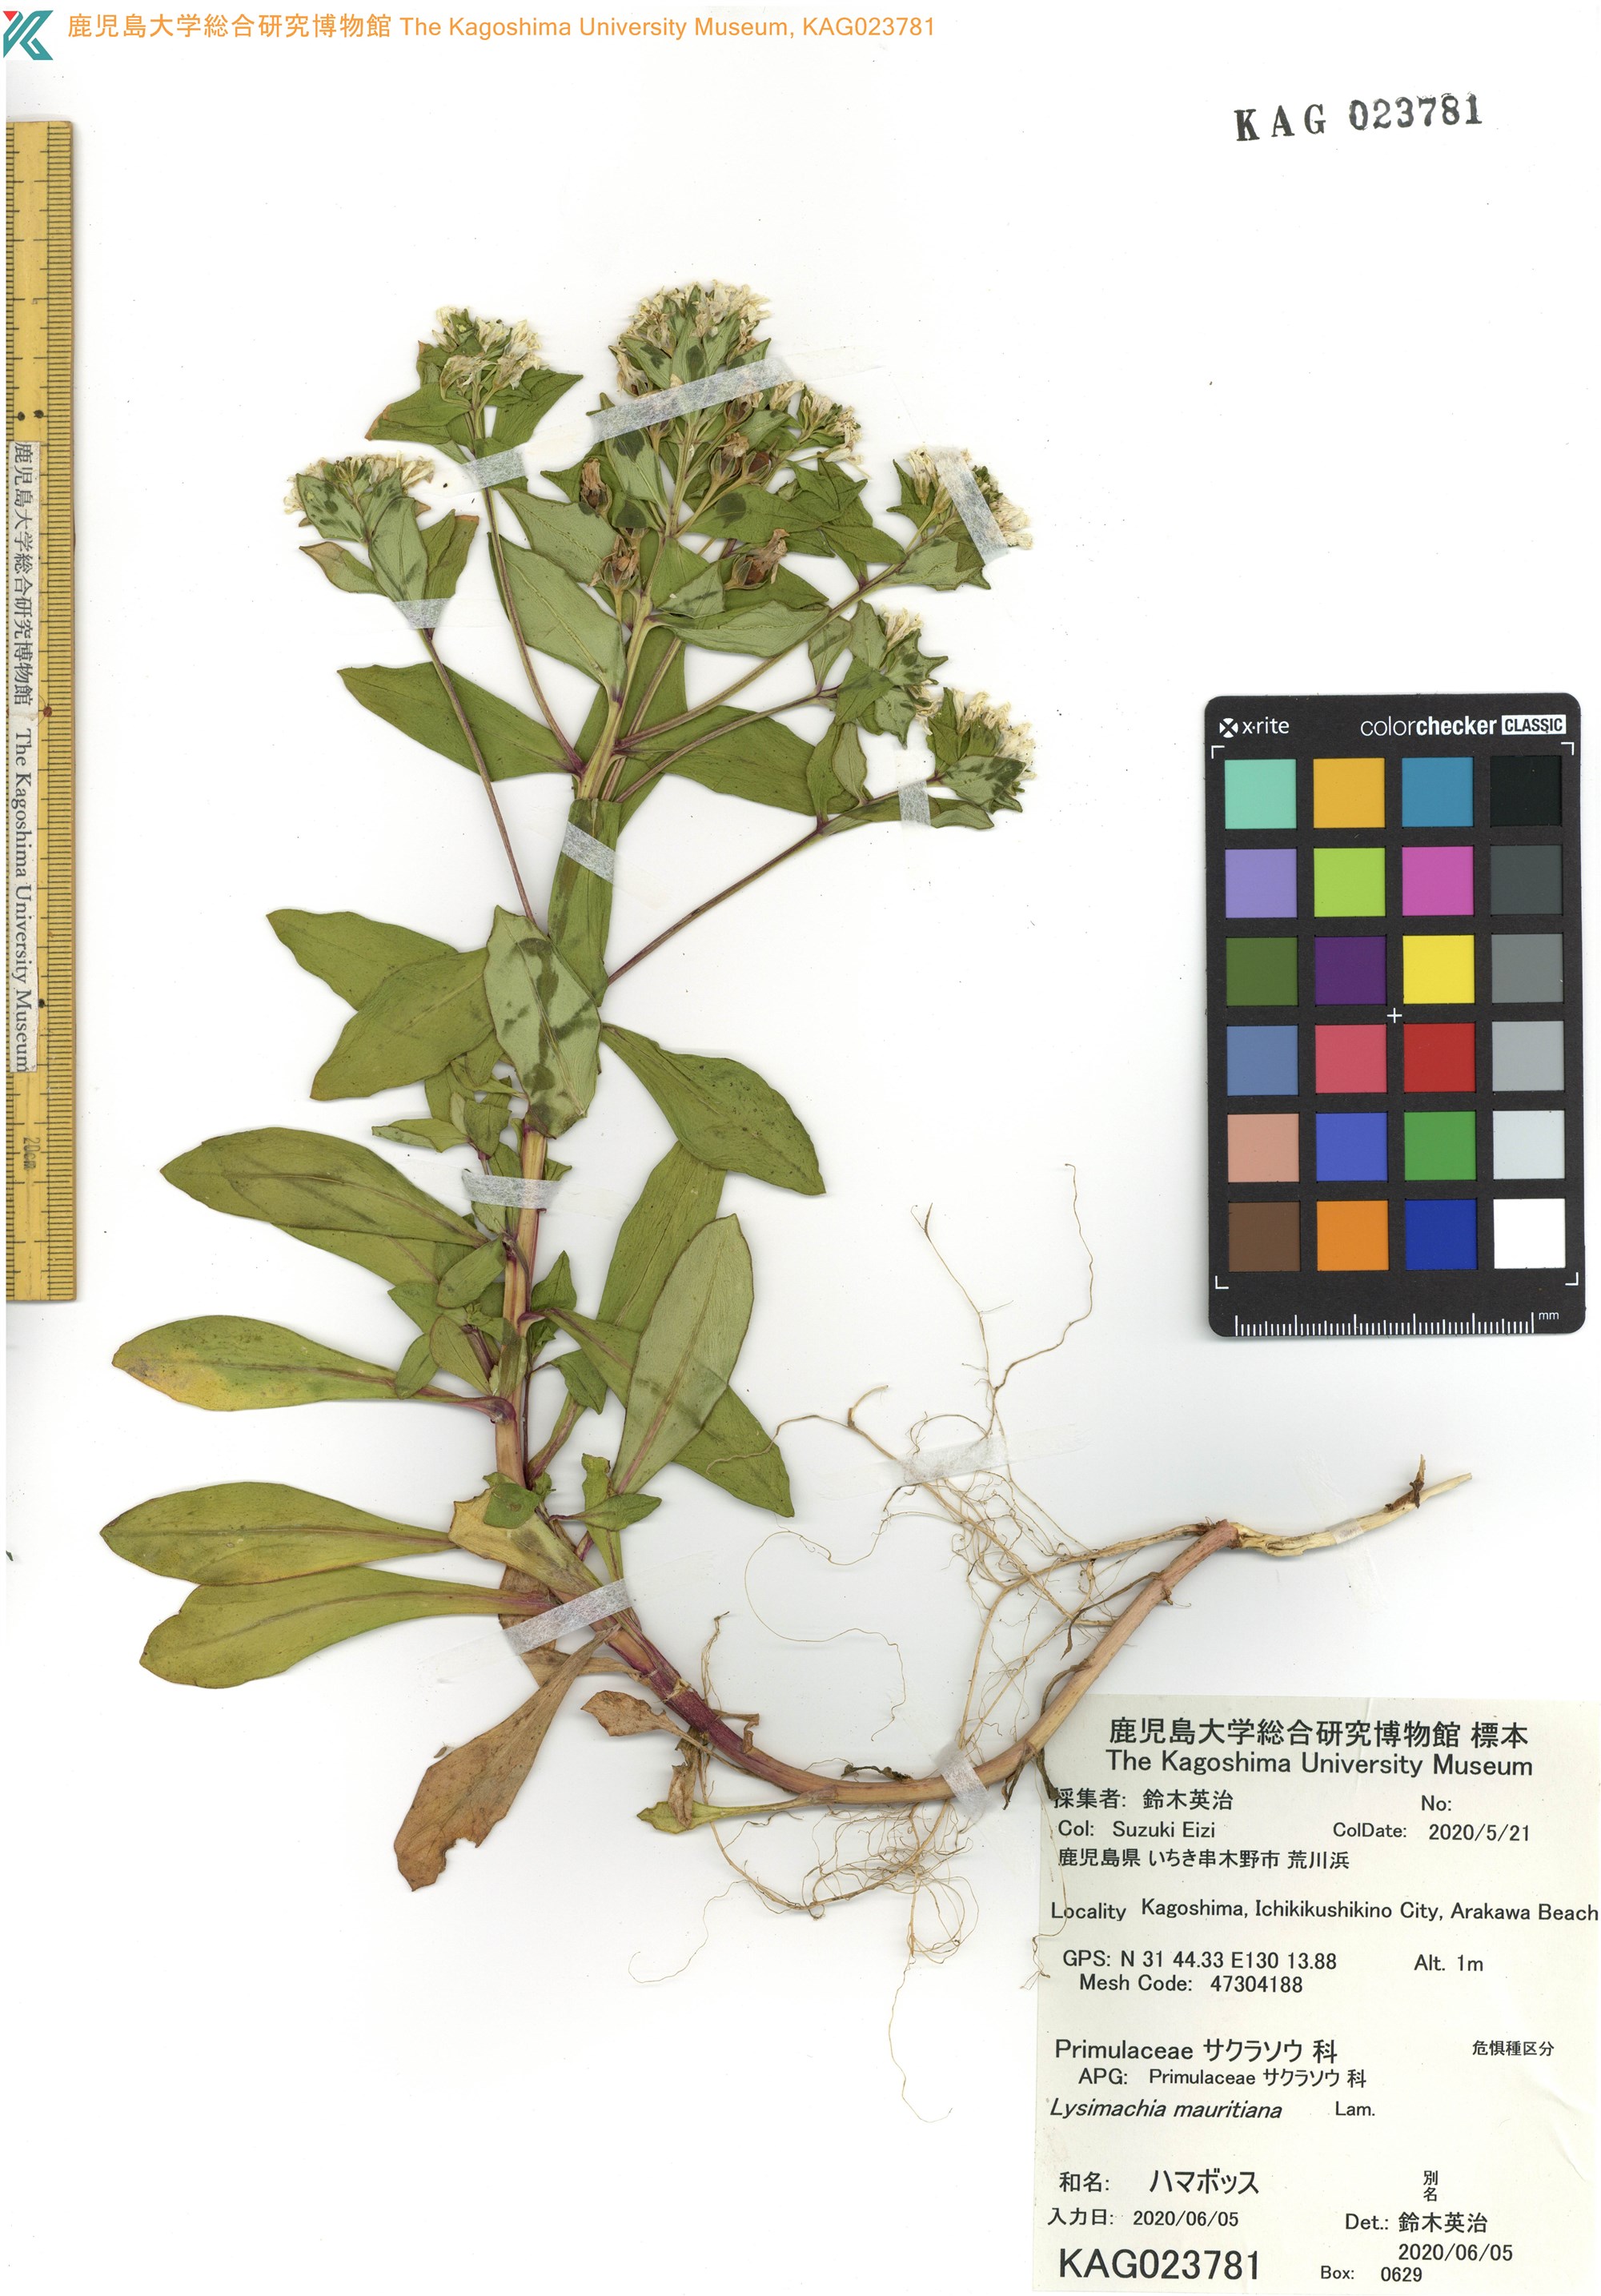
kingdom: Plantae
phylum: Tracheophyta
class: Magnoliopsida
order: Ericales
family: Primulaceae
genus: Lysimachia
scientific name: Lysimachia mauritiana
